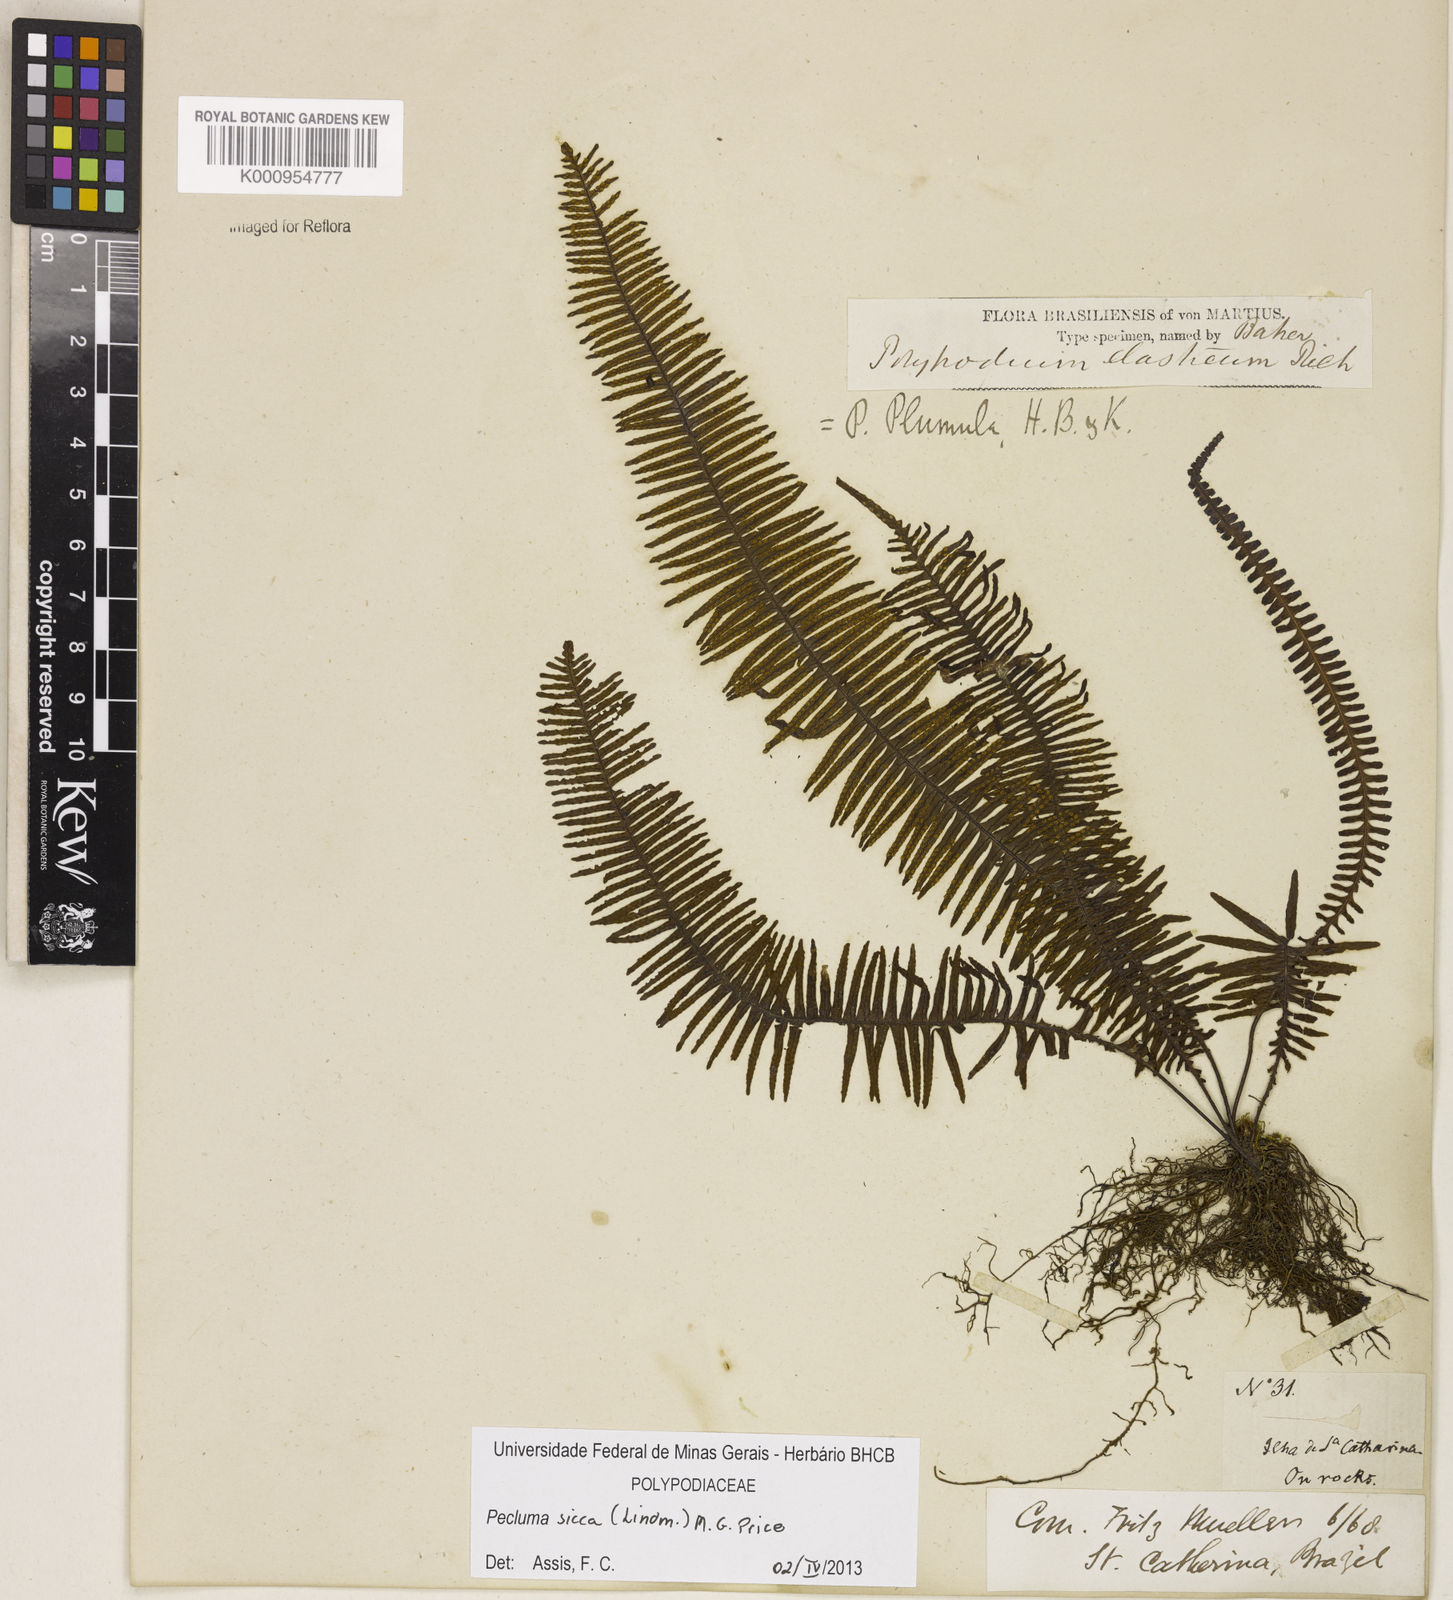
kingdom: Plantae
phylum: Tracheophyta
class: Polypodiopsida
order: Polypodiales
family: Polypodiaceae
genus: Pecluma
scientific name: Pecluma sicca
